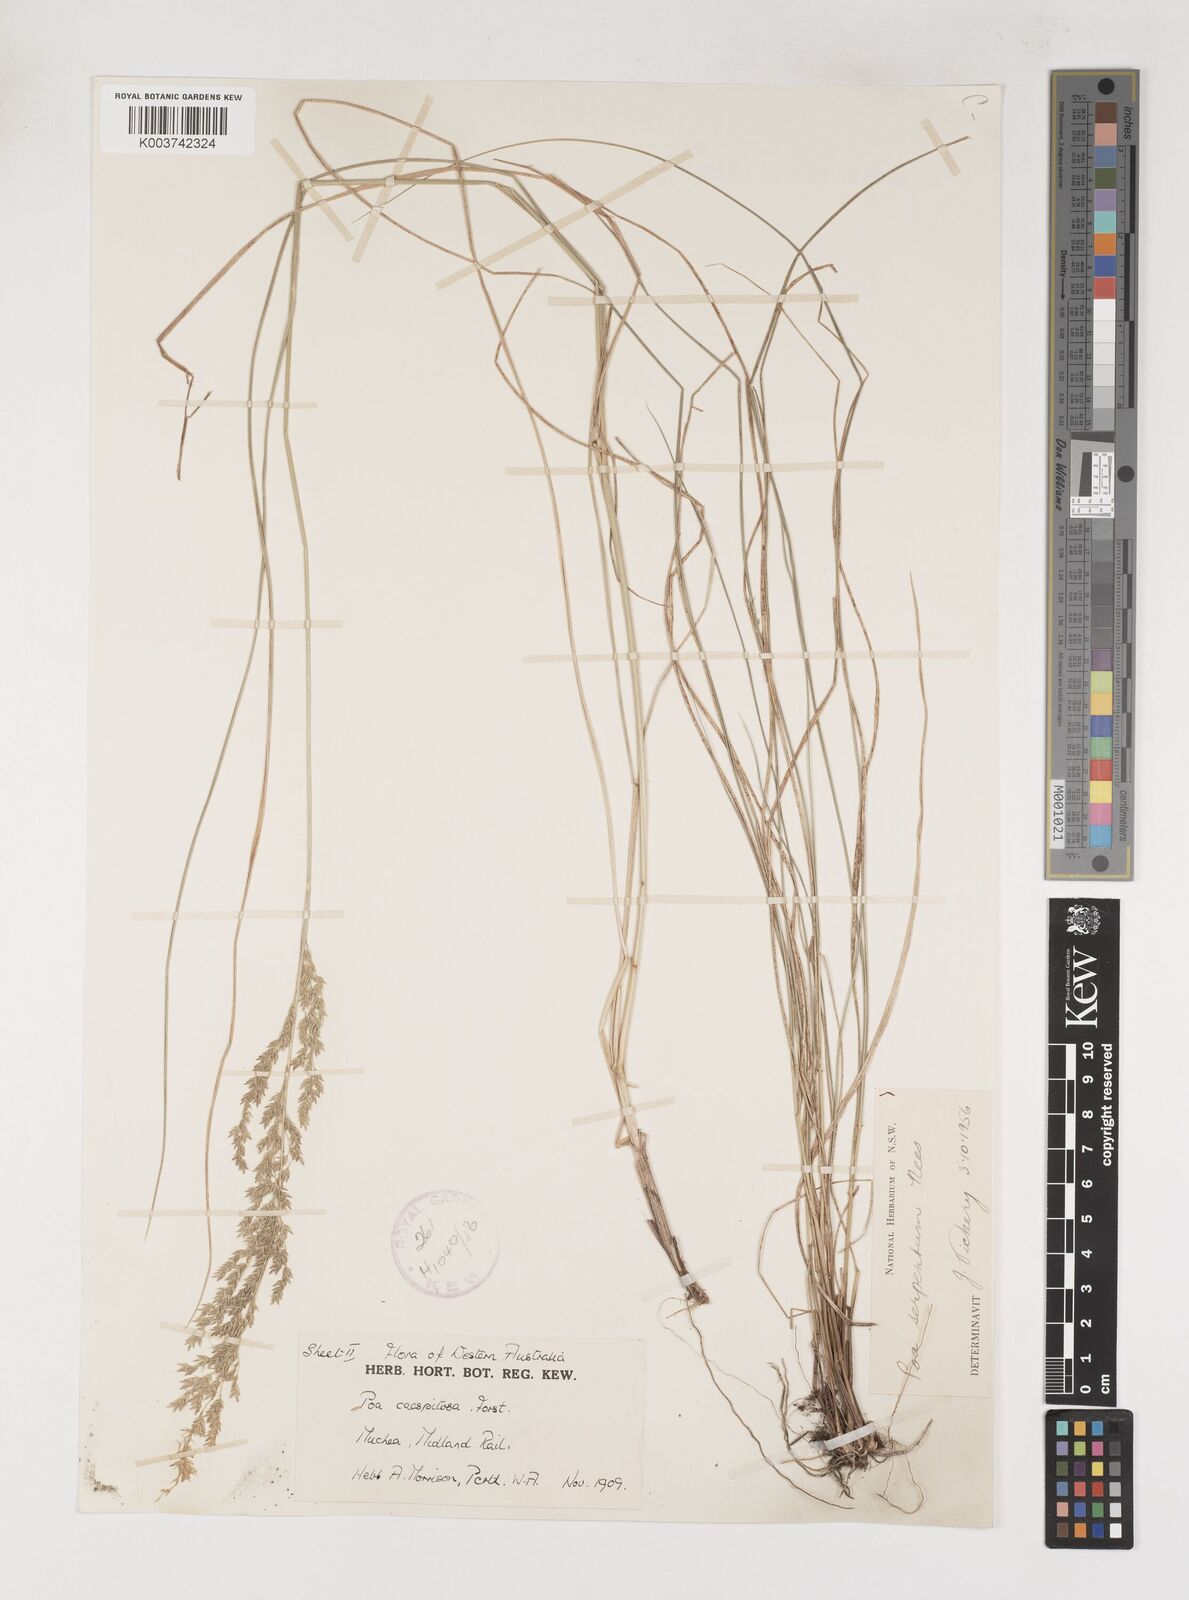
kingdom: Plantae
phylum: Tracheophyta
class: Liliopsida
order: Poales
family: Poaceae
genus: Poa
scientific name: Poa porphyroclados
